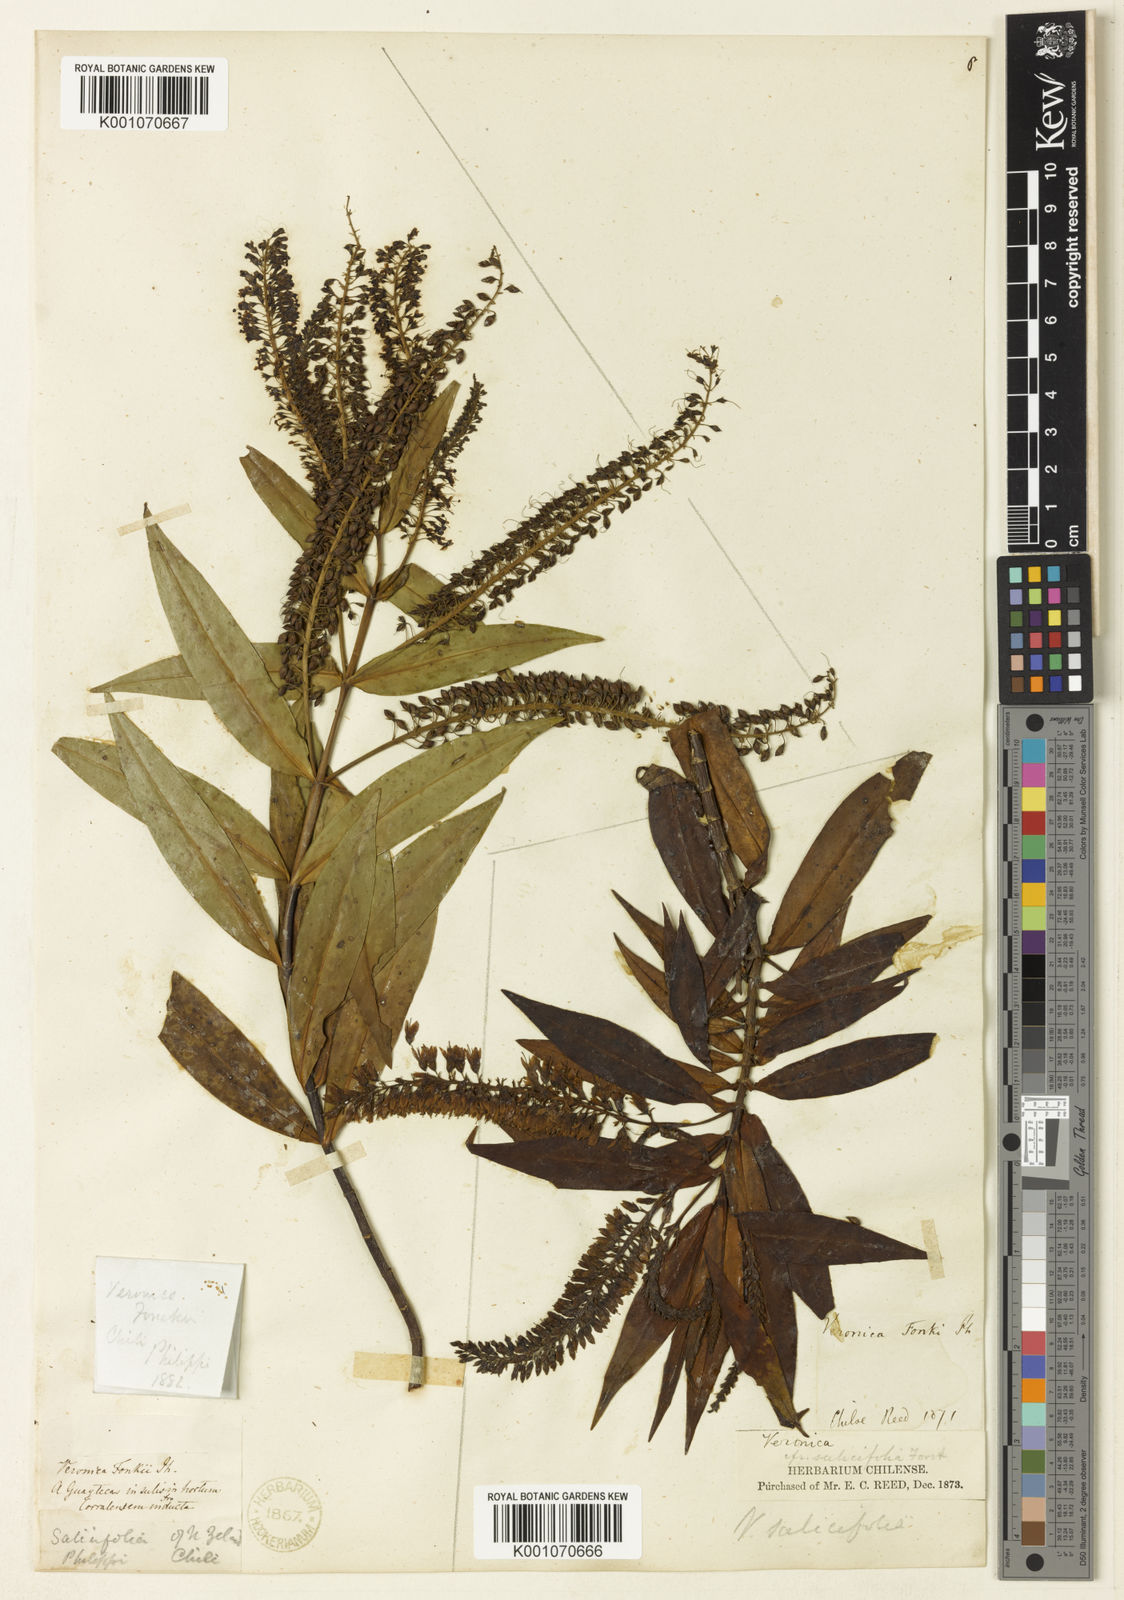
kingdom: Plantae
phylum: Tracheophyta
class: Magnoliopsida
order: Lamiales
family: Plantaginaceae
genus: Veronica
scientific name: Veronica salicifolia
